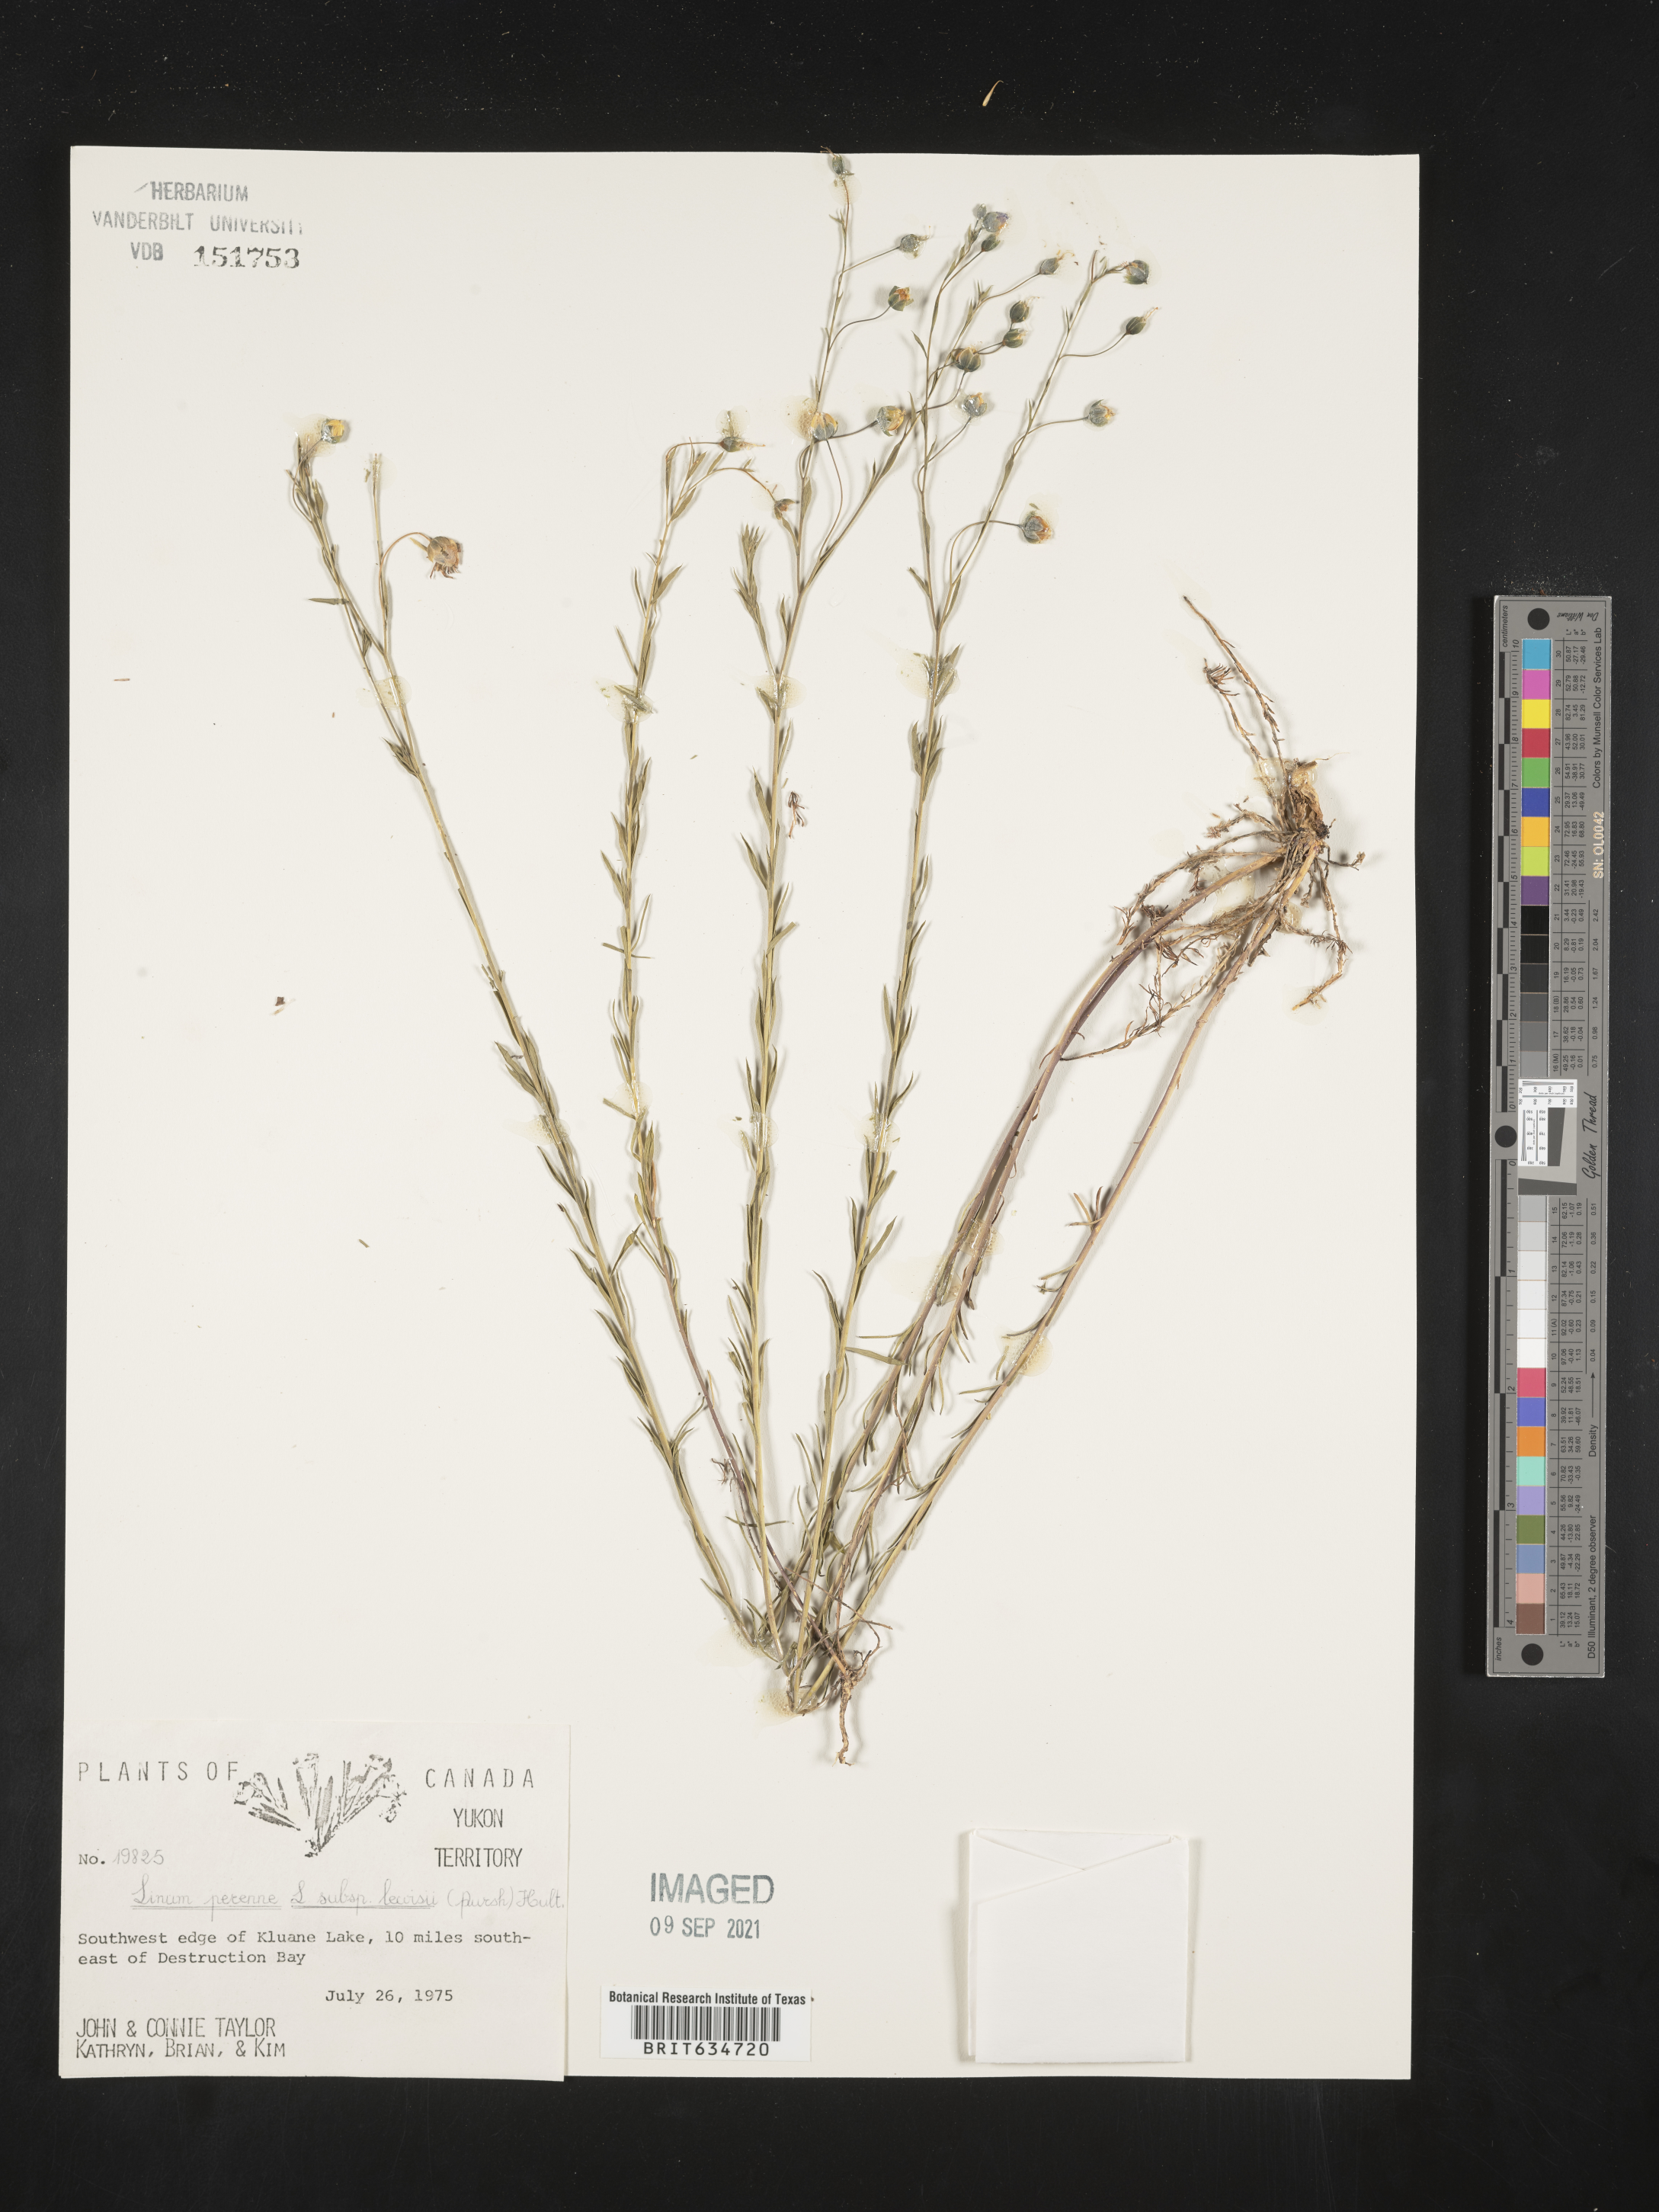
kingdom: Plantae
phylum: Tracheophyta
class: Magnoliopsida
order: Malpighiales
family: Linaceae
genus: Linum
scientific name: Linum
